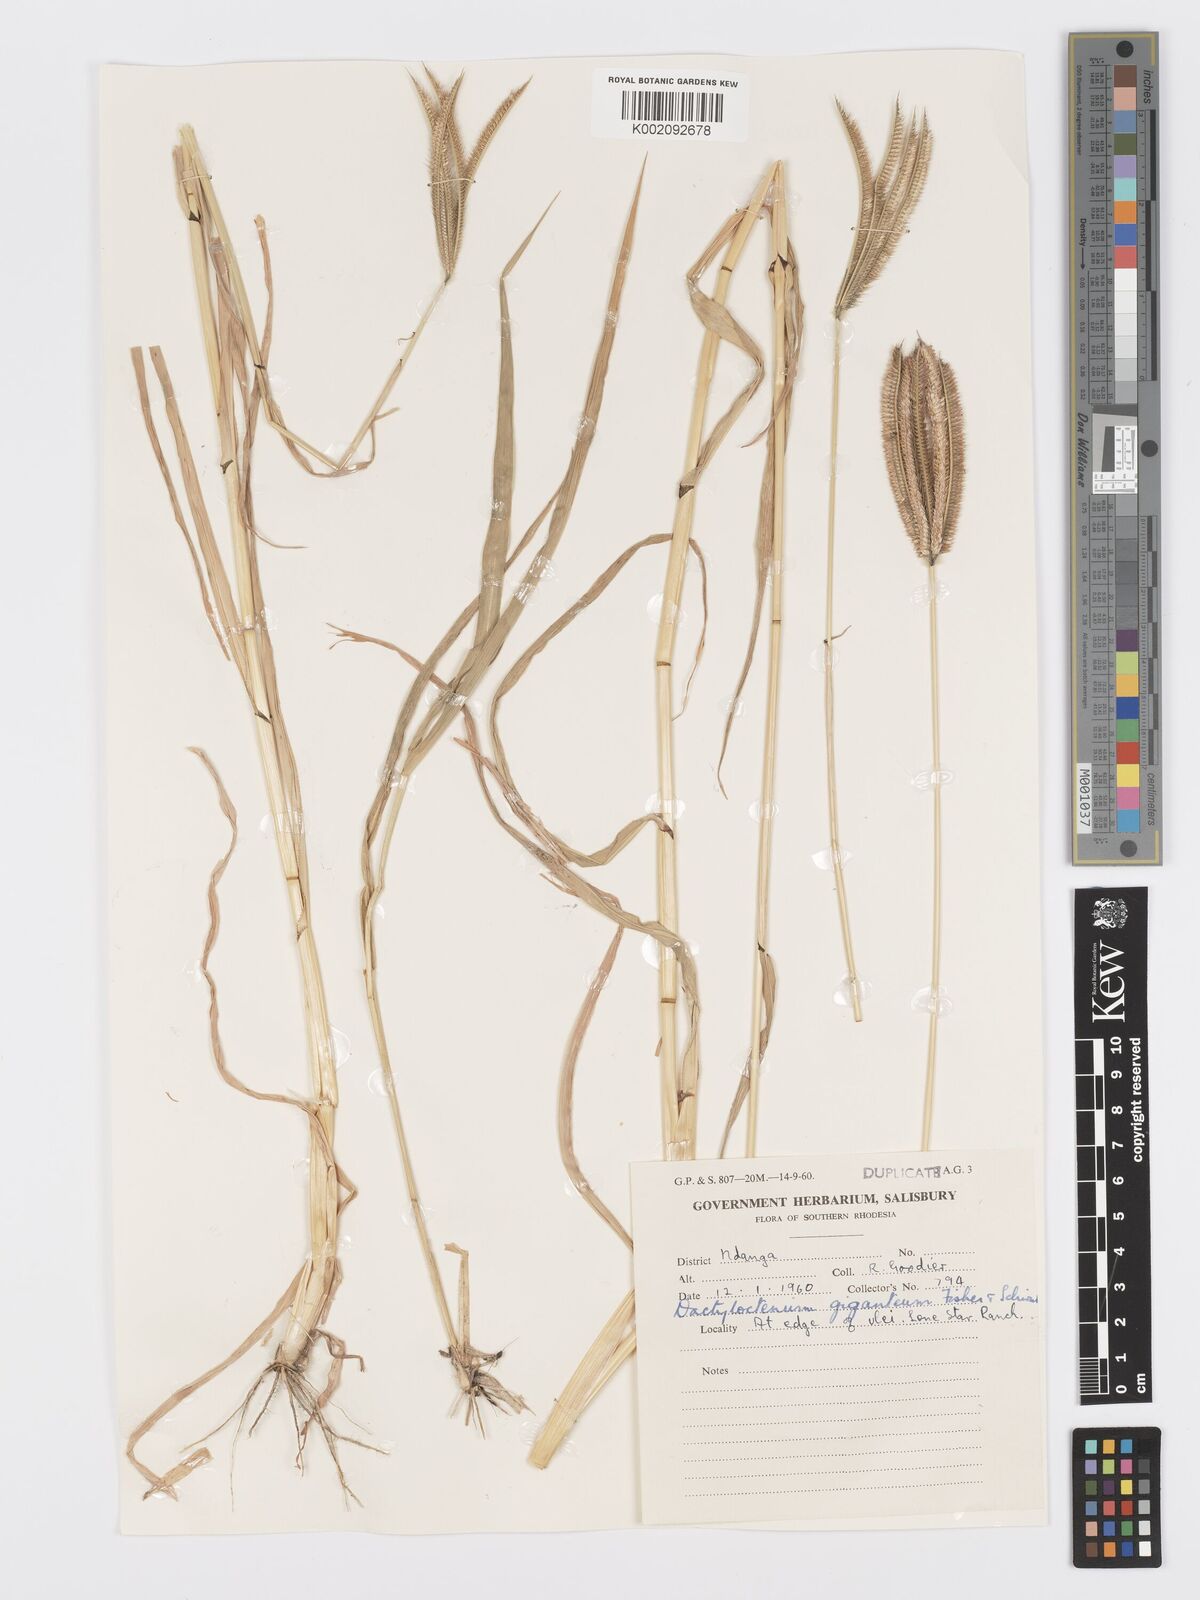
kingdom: Plantae
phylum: Tracheophyta
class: Liliopsida
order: Poales
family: Poaceae
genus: Dactyloctenium
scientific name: Dactyloctenium giganteum
